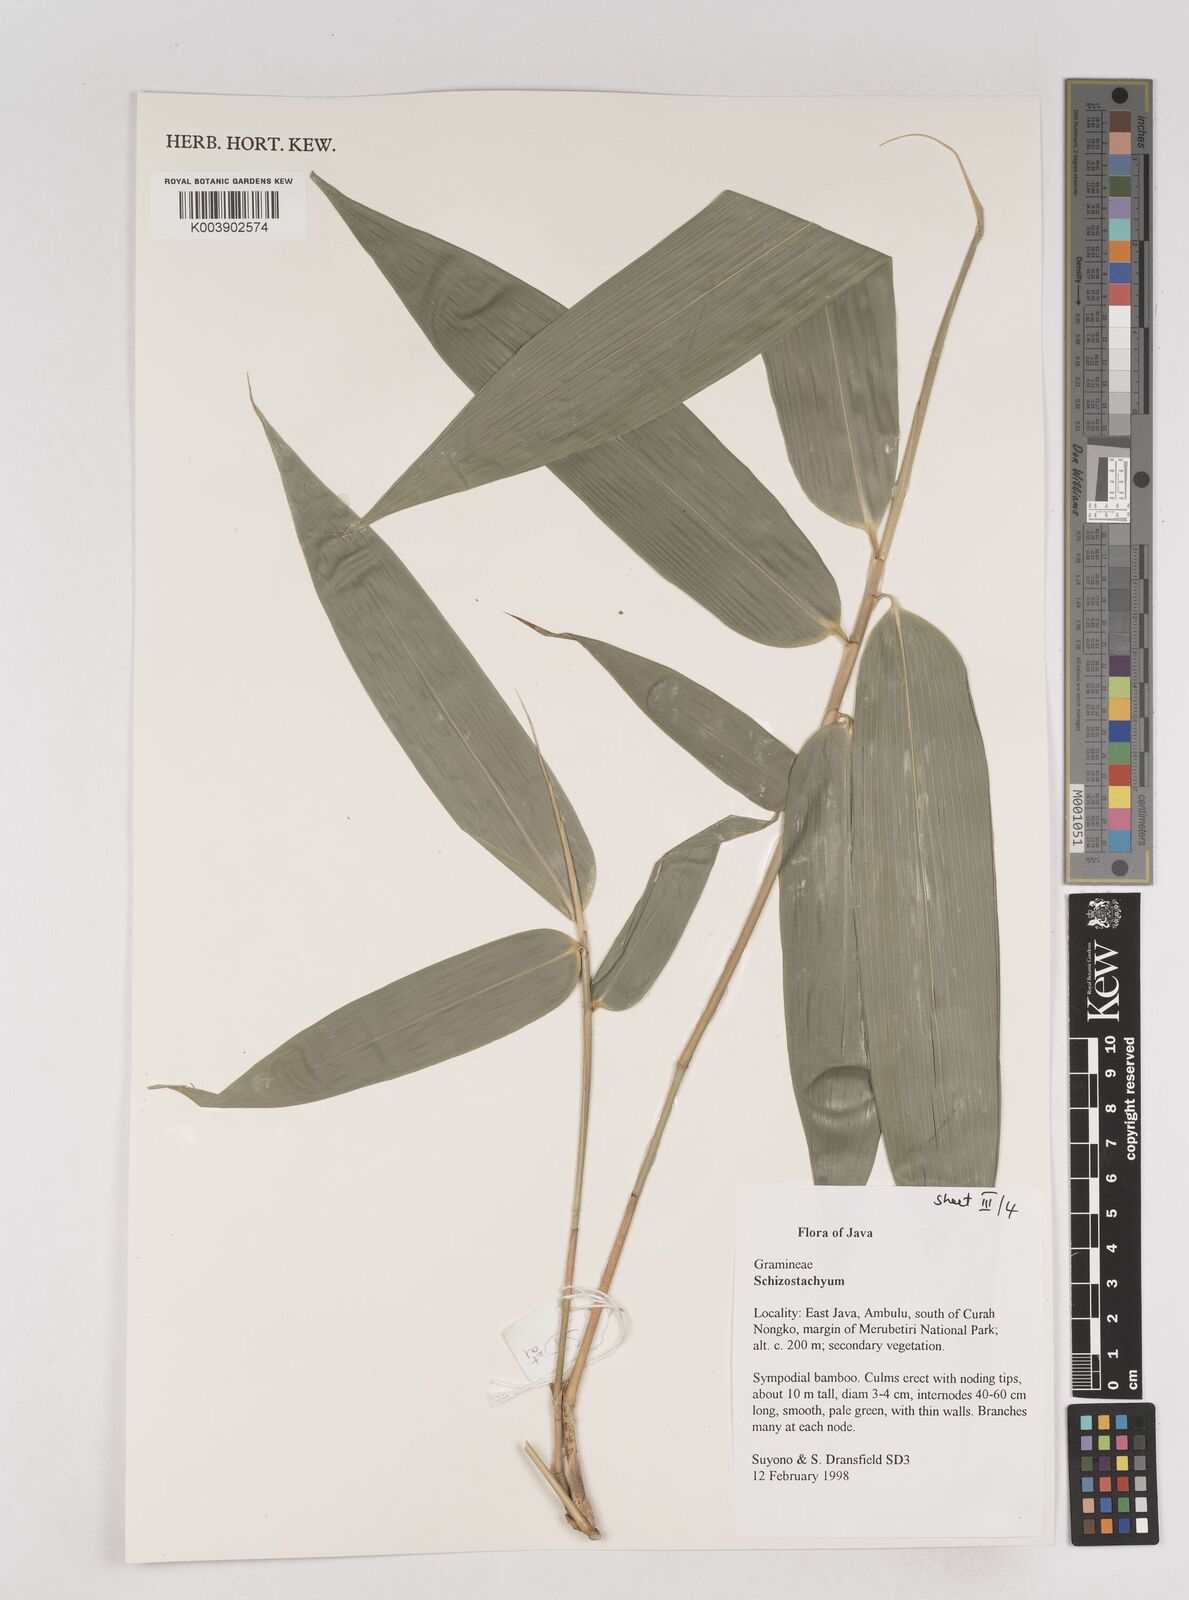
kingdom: Plantae
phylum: Tracheophyta
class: Liliopsida
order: Poales
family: Poaceae
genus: Schizostachyum
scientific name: Schizostachyum
